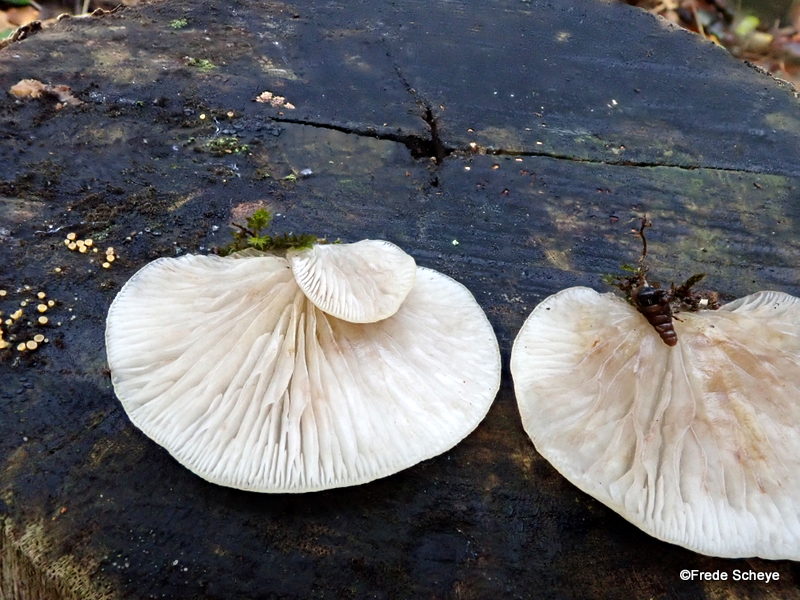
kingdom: Fungi
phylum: Basidiomycota
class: Agaricomycetes
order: Agaricales
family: Crepidotaceae
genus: Crepidotus
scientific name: Crepidotus mollis
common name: blød muslingesvamp
